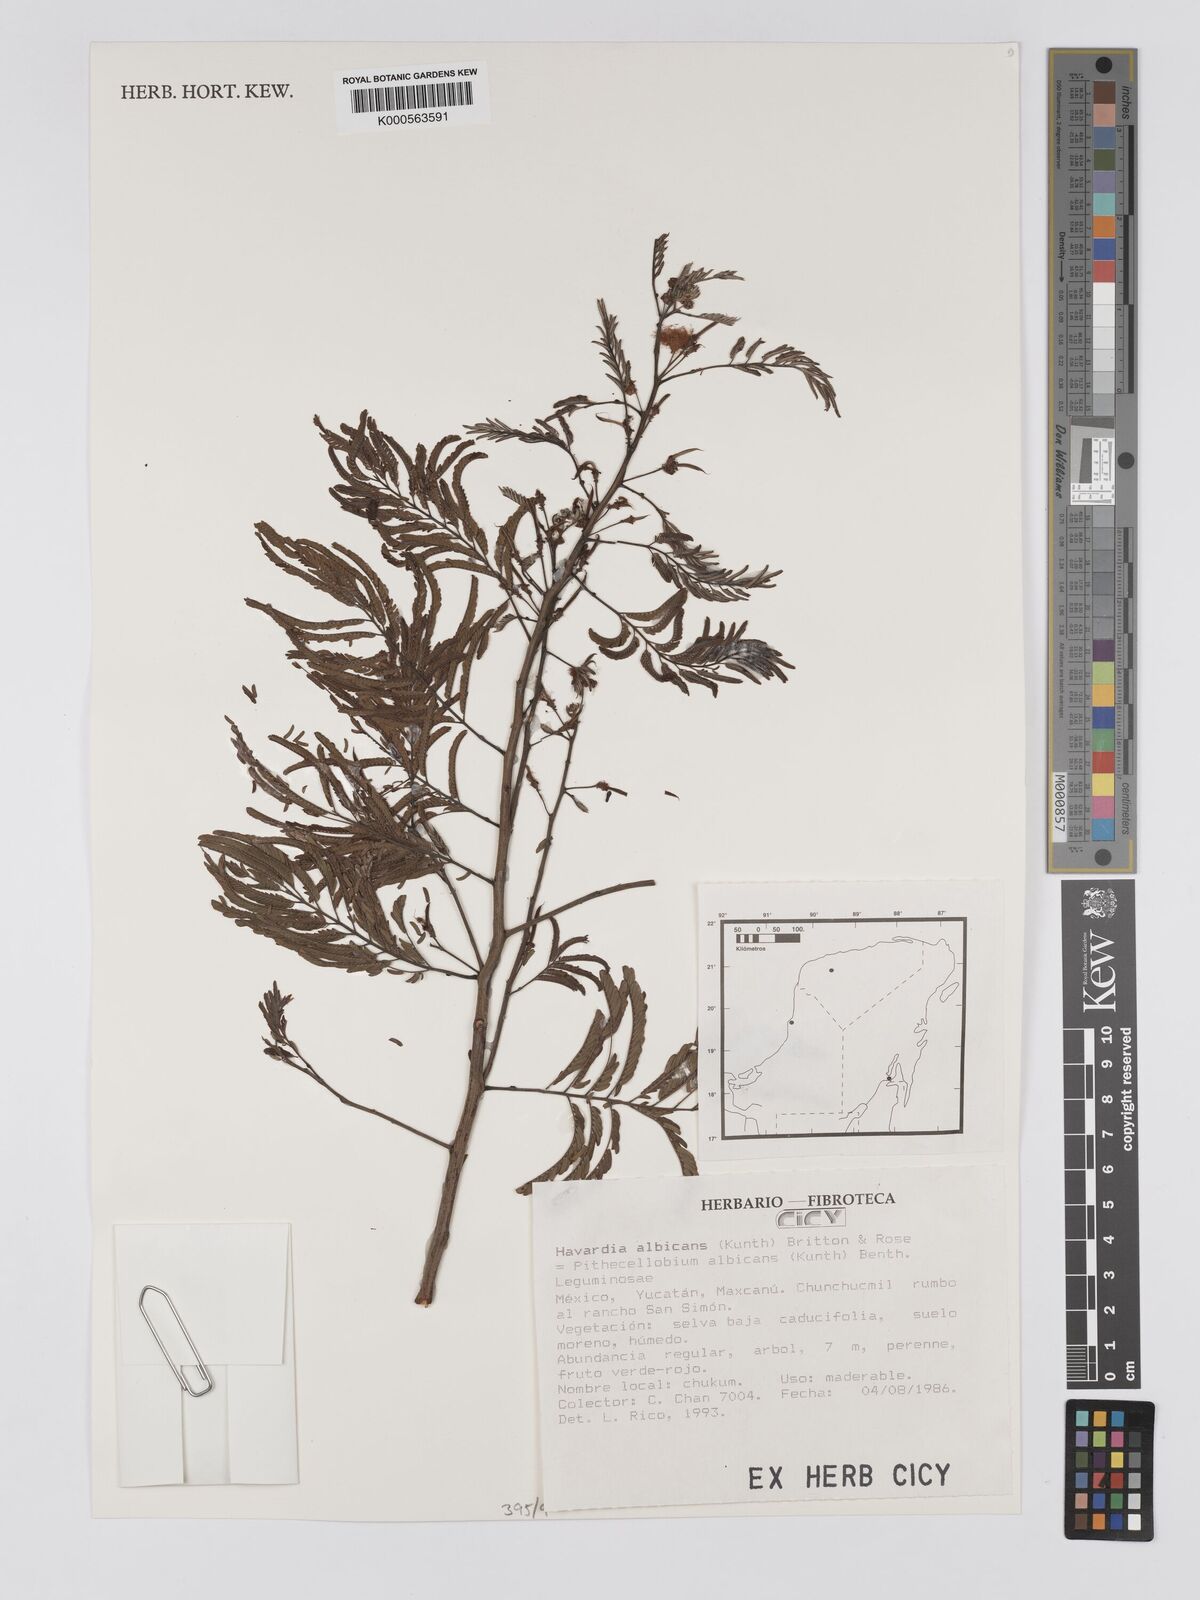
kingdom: Plantae
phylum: Tracheophyta
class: Magnoliopsida
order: Fabales
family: Fabaceae
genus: Havardia
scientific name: Havardia albicans
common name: Huisache
